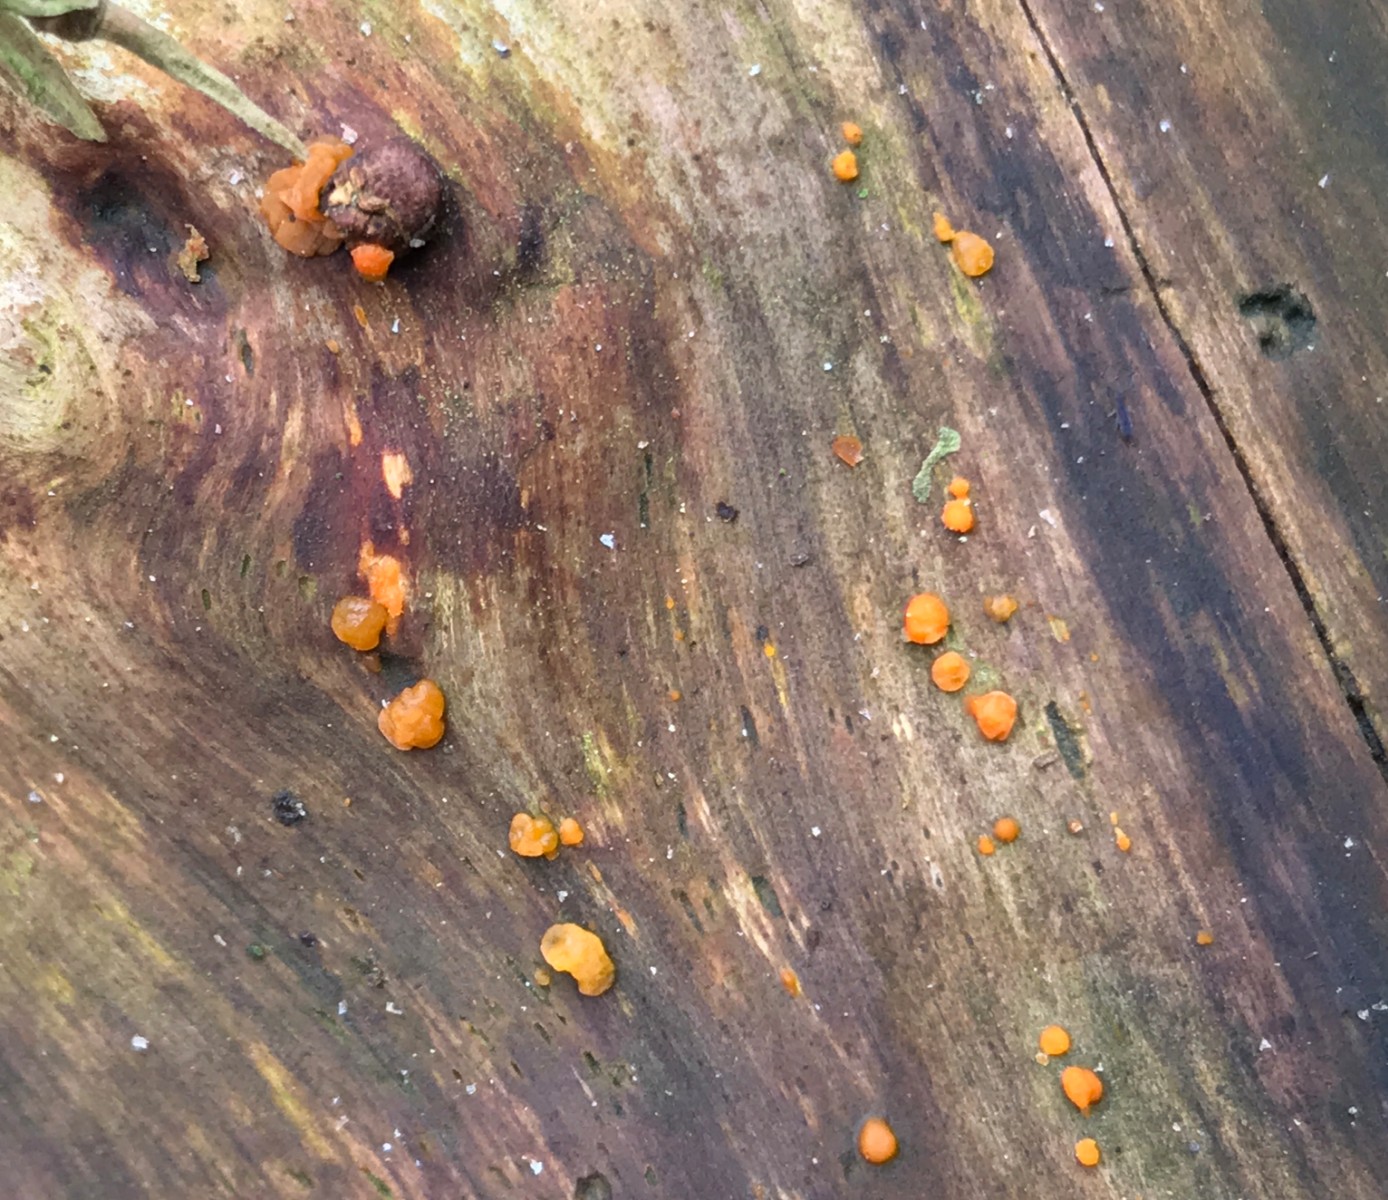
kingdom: Fungi
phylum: Basidiomycota
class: Dacrymycetes
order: Dacrymycetales
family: Dacrymycetaceae
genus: Dacrymyces
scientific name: Dacrymyces stillatus
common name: almindelig tåresvamp
